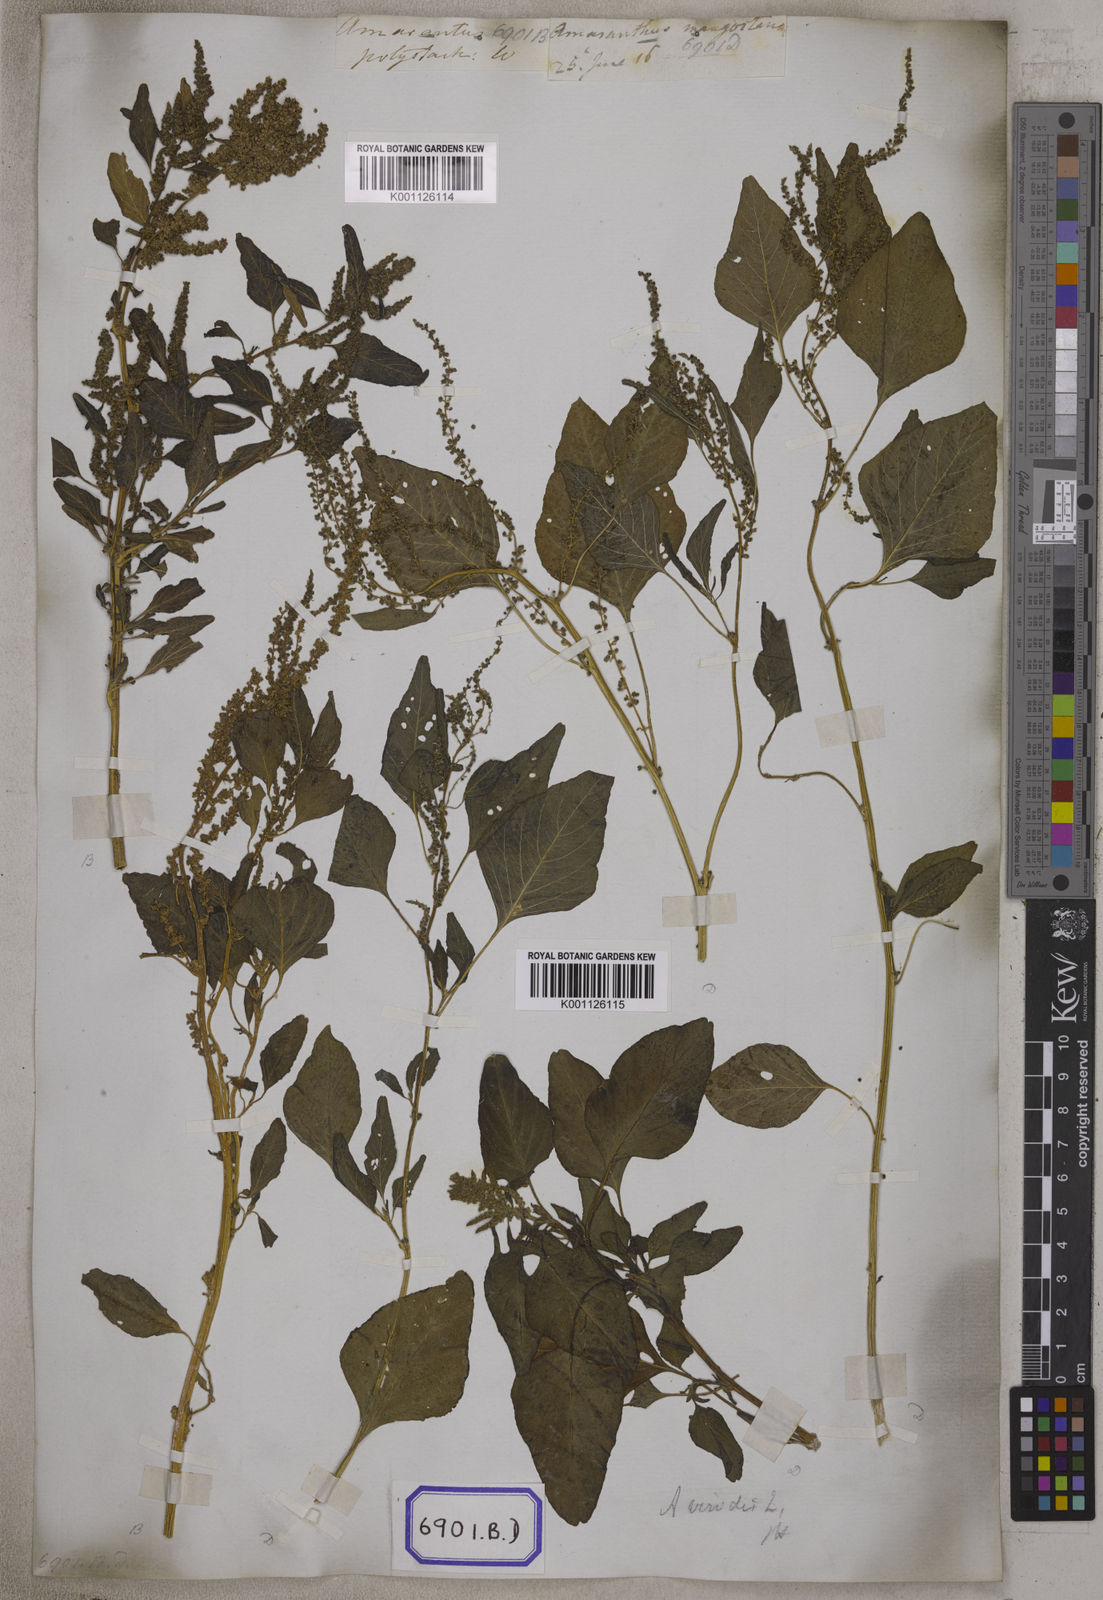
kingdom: Plantae
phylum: Tracheophyta
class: Magnoliopsida
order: Caryophyllales
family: Amaranthaceae
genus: Amaranthus
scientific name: Amaranthus
